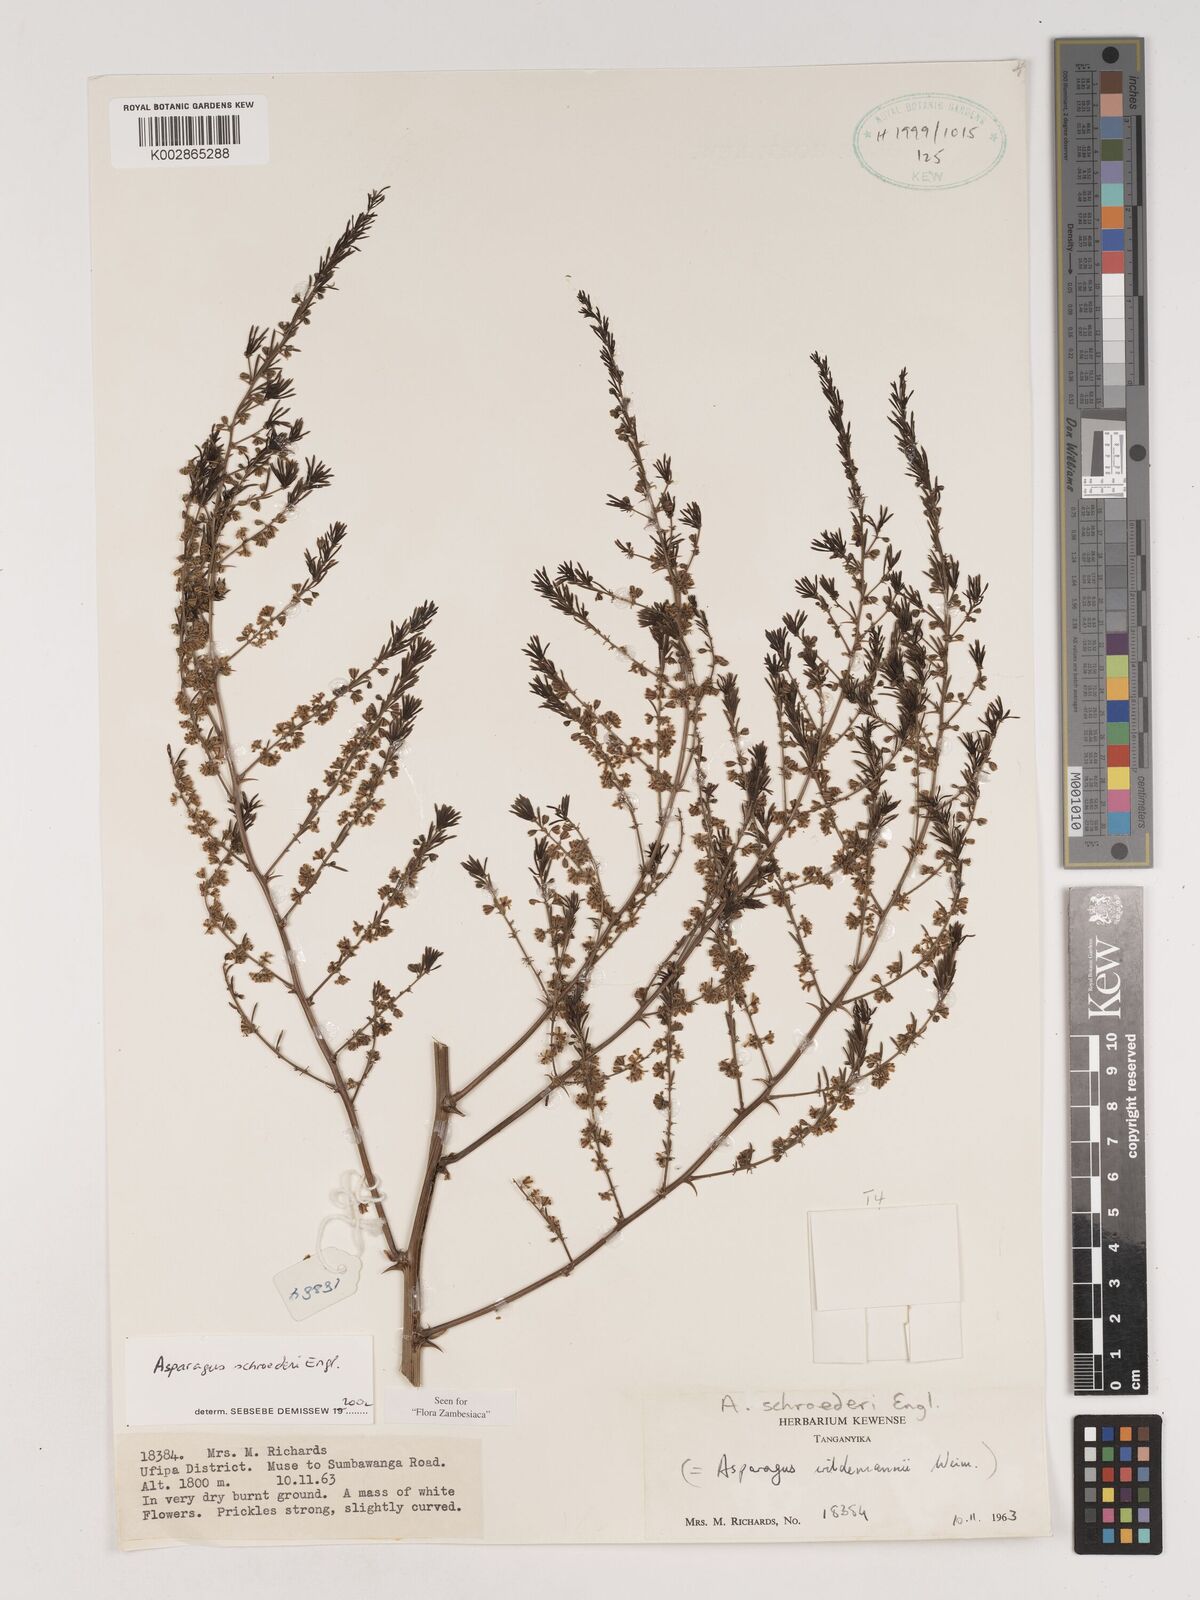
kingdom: Plantae
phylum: Tracheophyta
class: Liliopsida
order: Asparagales
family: Asparagaceae
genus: Asparagus
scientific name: Asparagus schroederi
